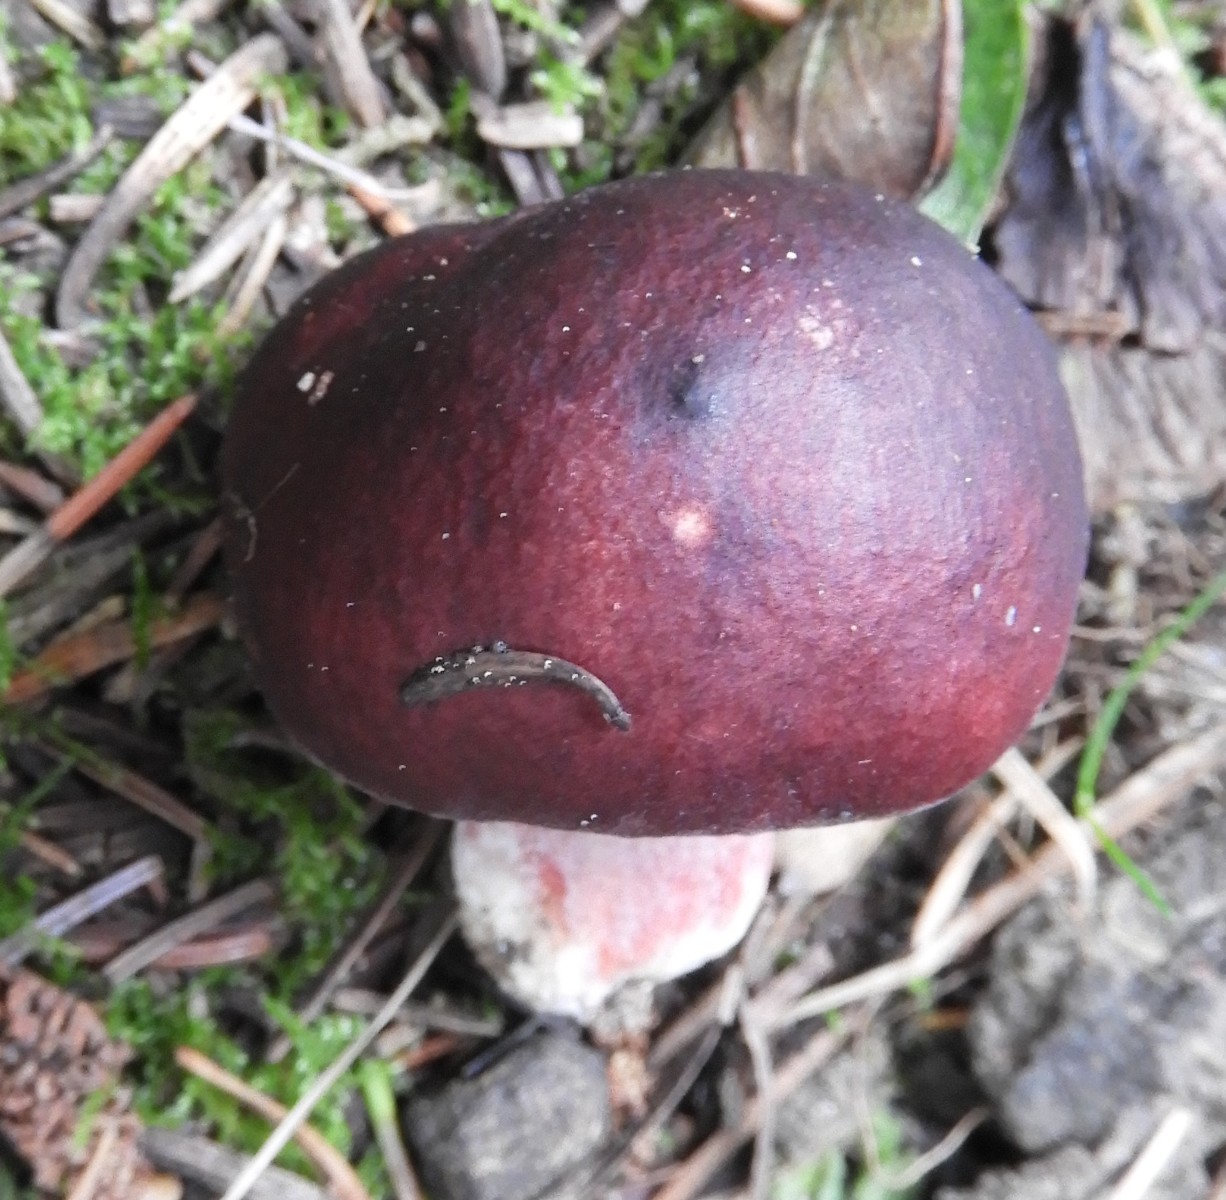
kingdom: Fungi
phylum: Basidiomycota
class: Agaricomycetes
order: Russulales
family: Russulaceae
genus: Russula
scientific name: Russula queletii
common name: Quélets skørhat
